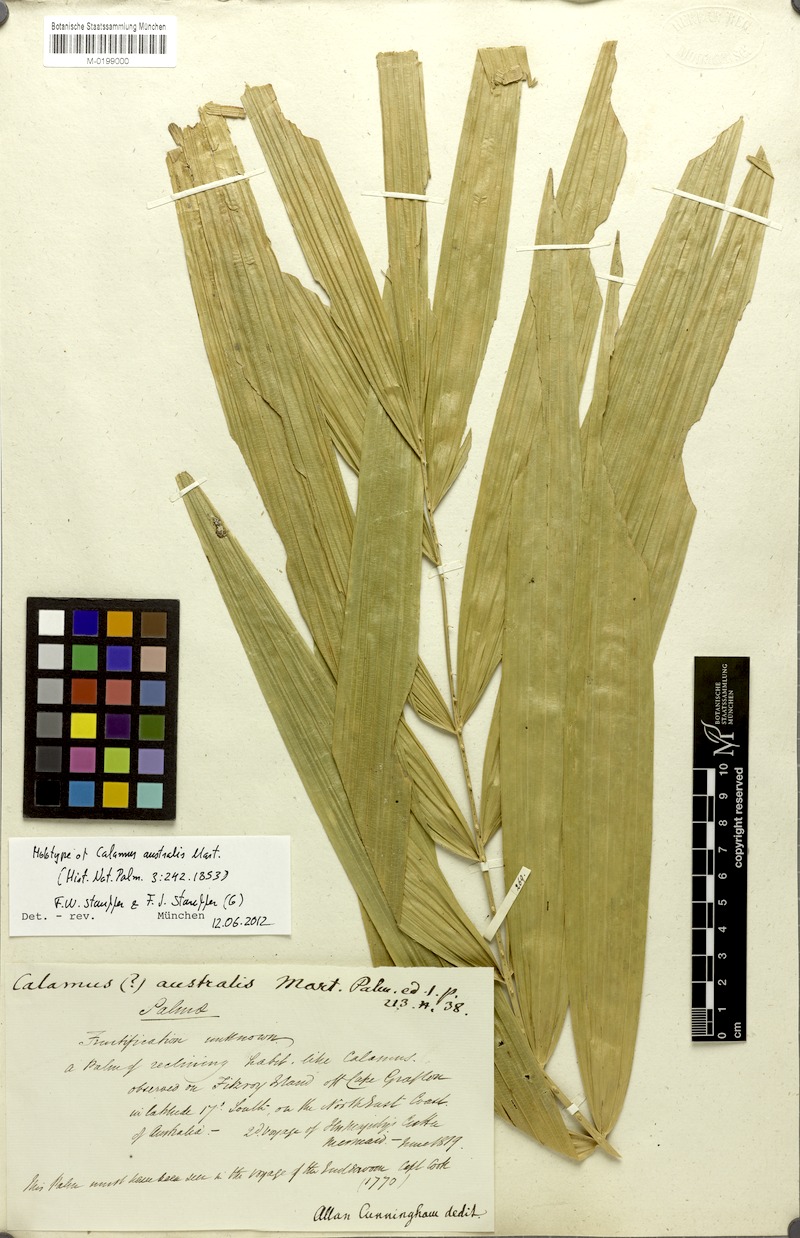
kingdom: Plantae
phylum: Tracheophyta
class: Liliopsida
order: Arecales
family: Arecaceae
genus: Calamus
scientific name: Calamus australis
